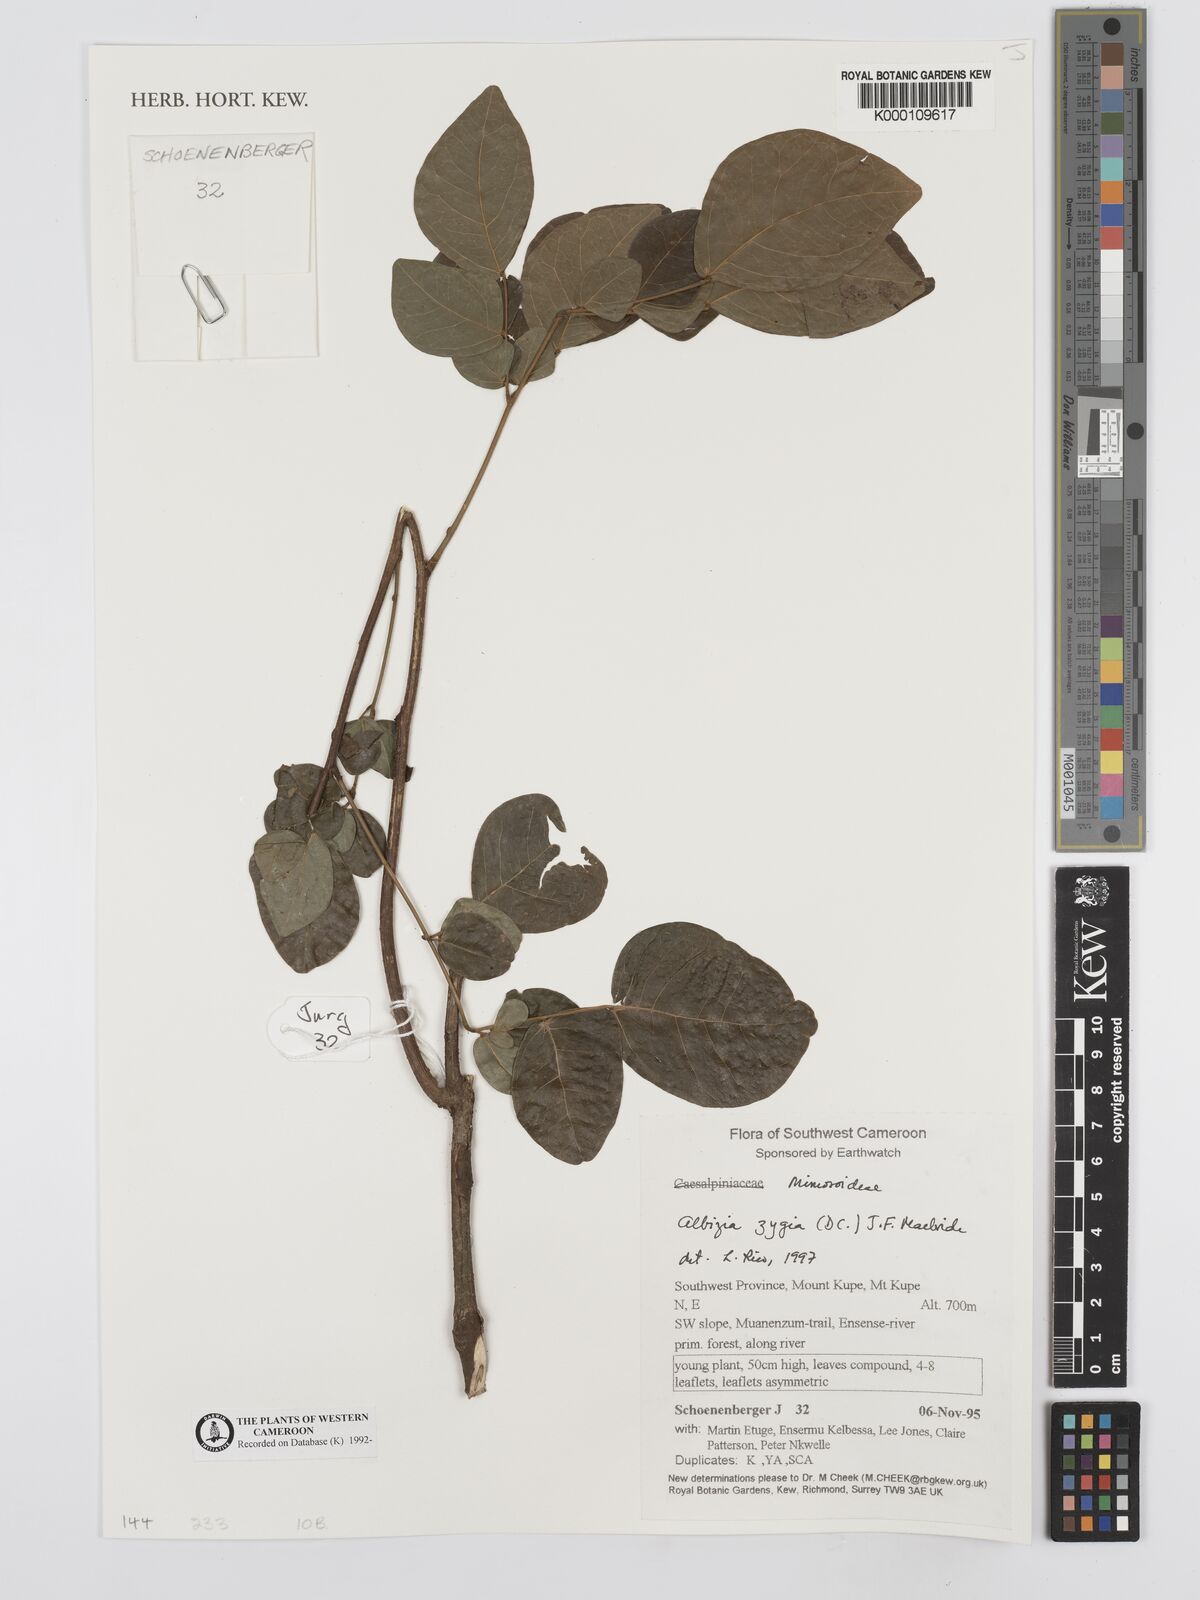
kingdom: Plantae
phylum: Tracheophyta
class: Magnoliopsida
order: Fabales
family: Fabaceae
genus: Albizia
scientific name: Albizia zygia
